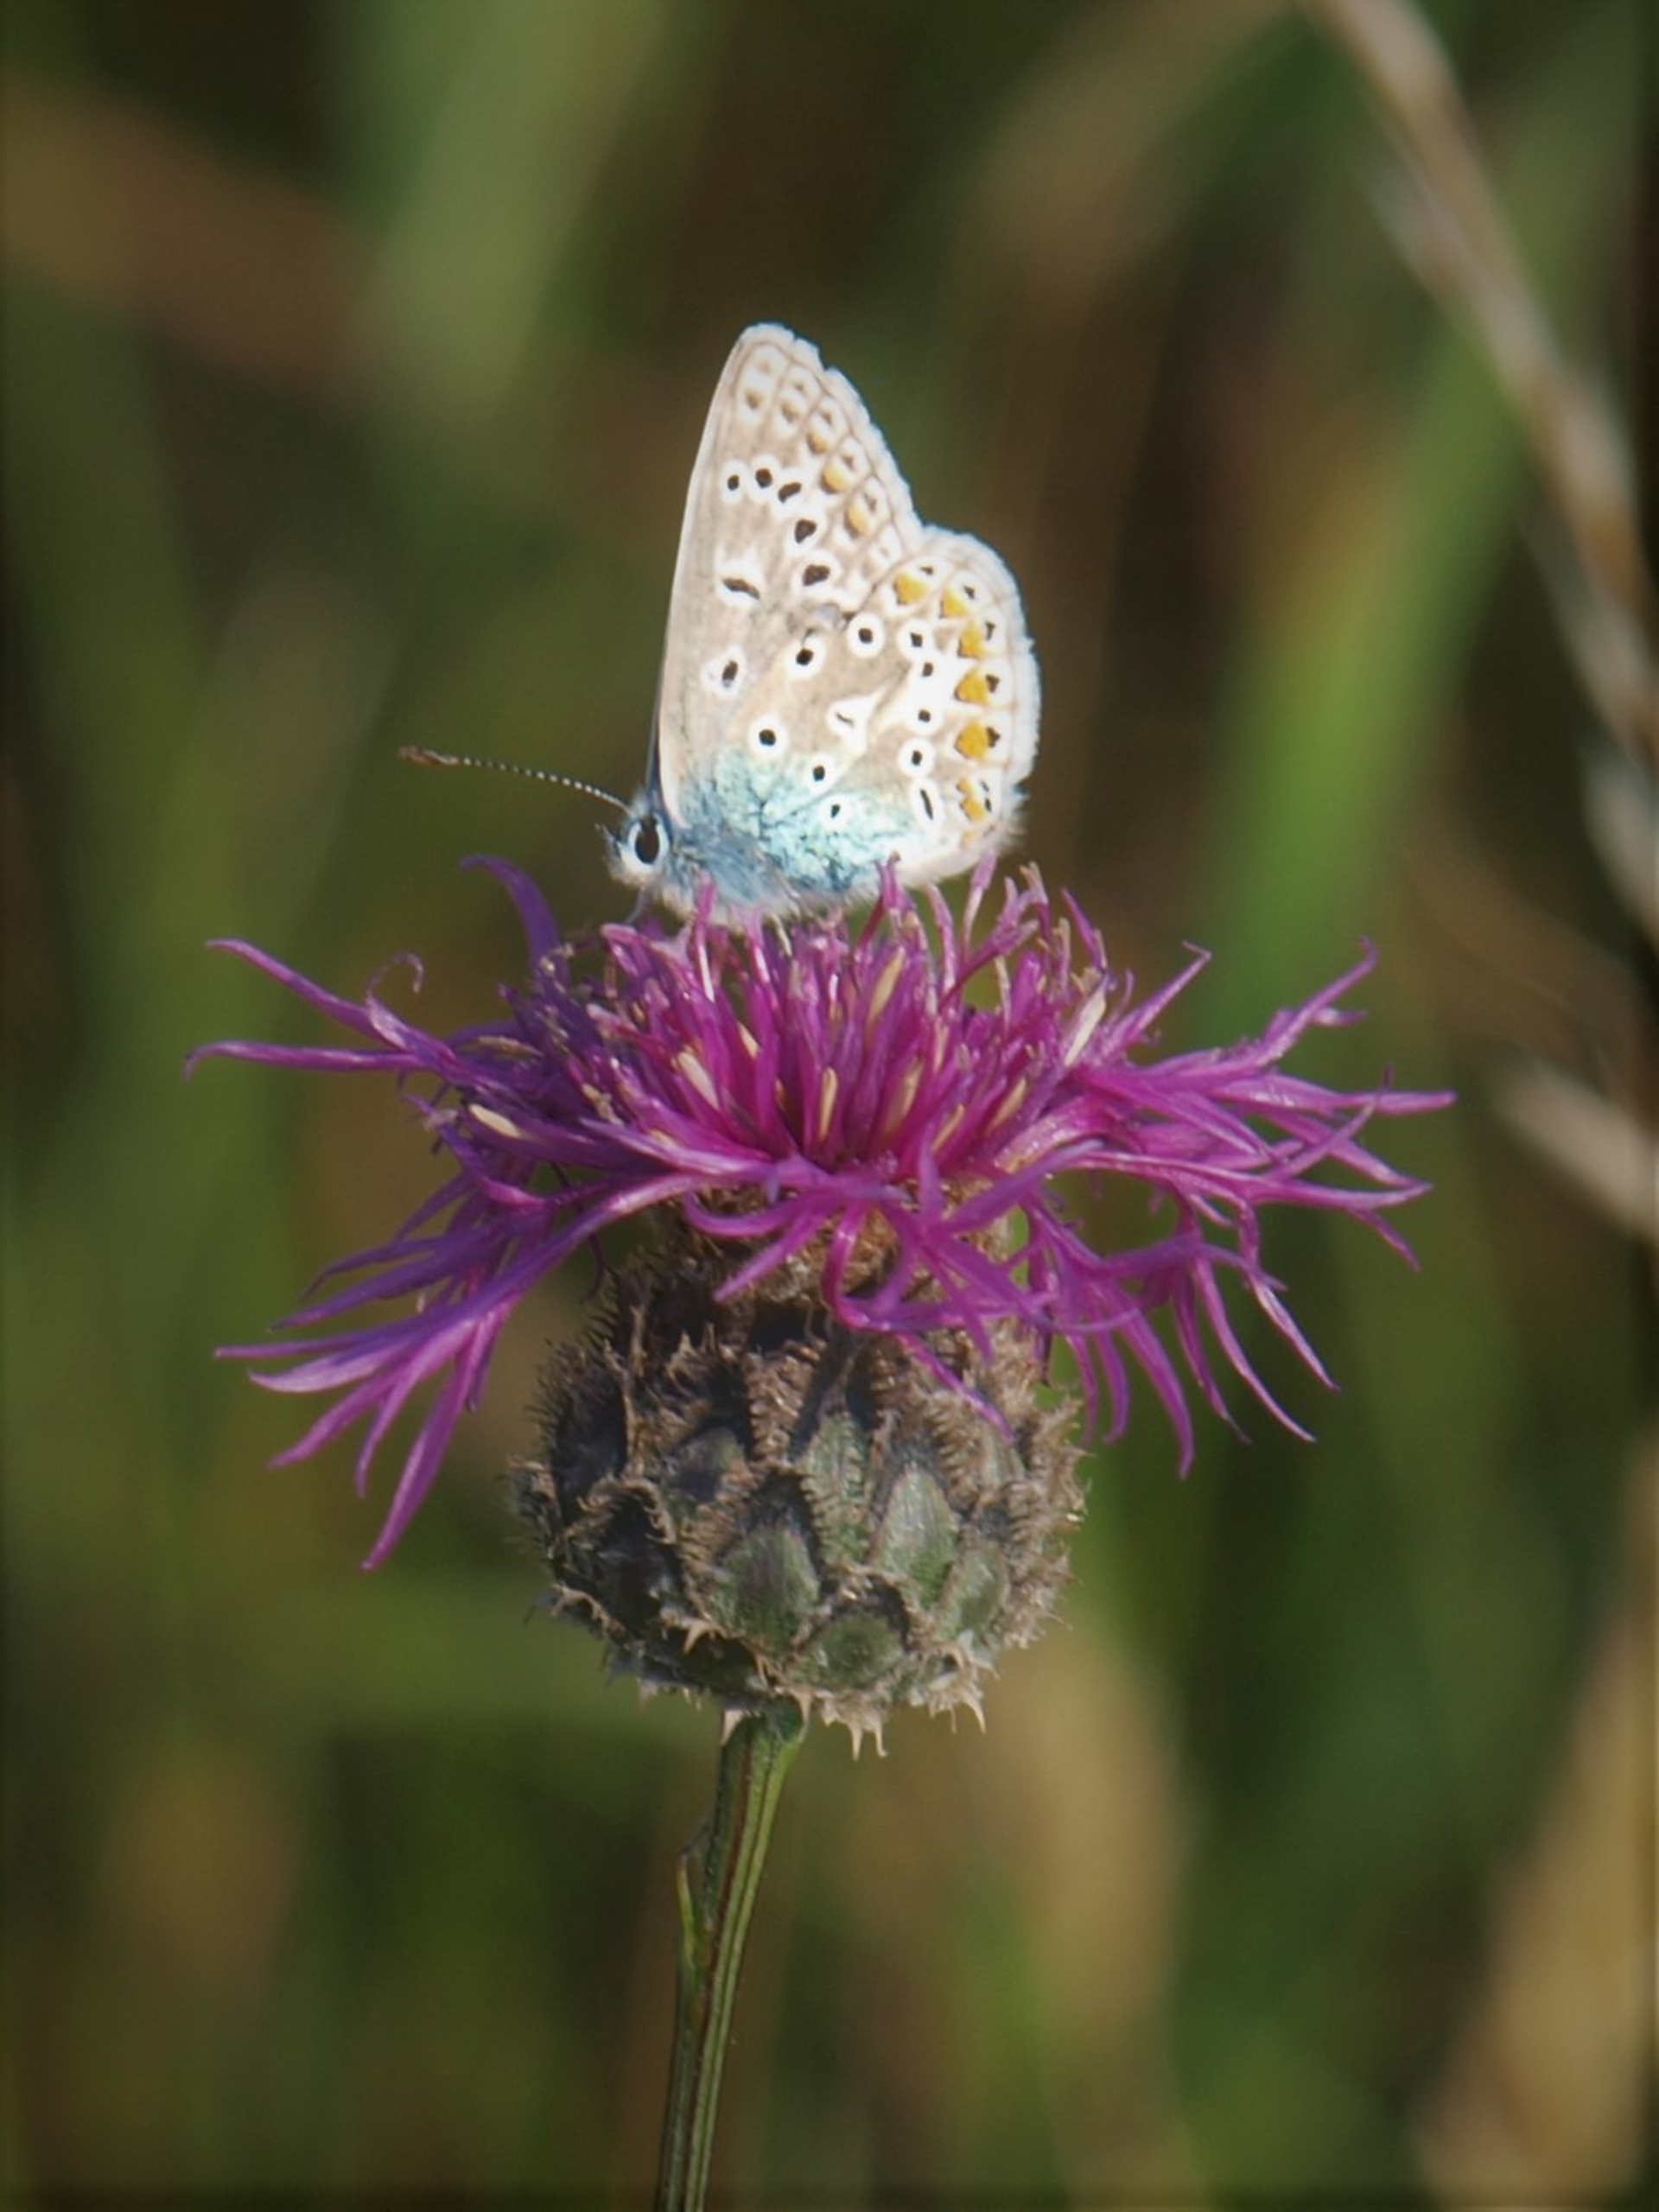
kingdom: Animalia
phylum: Arthropoda
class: Insecta
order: Lepidoptera
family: Lycaenidae
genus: Polyommatus
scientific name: Polyommatus icarus
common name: Almindelig blåfugl
